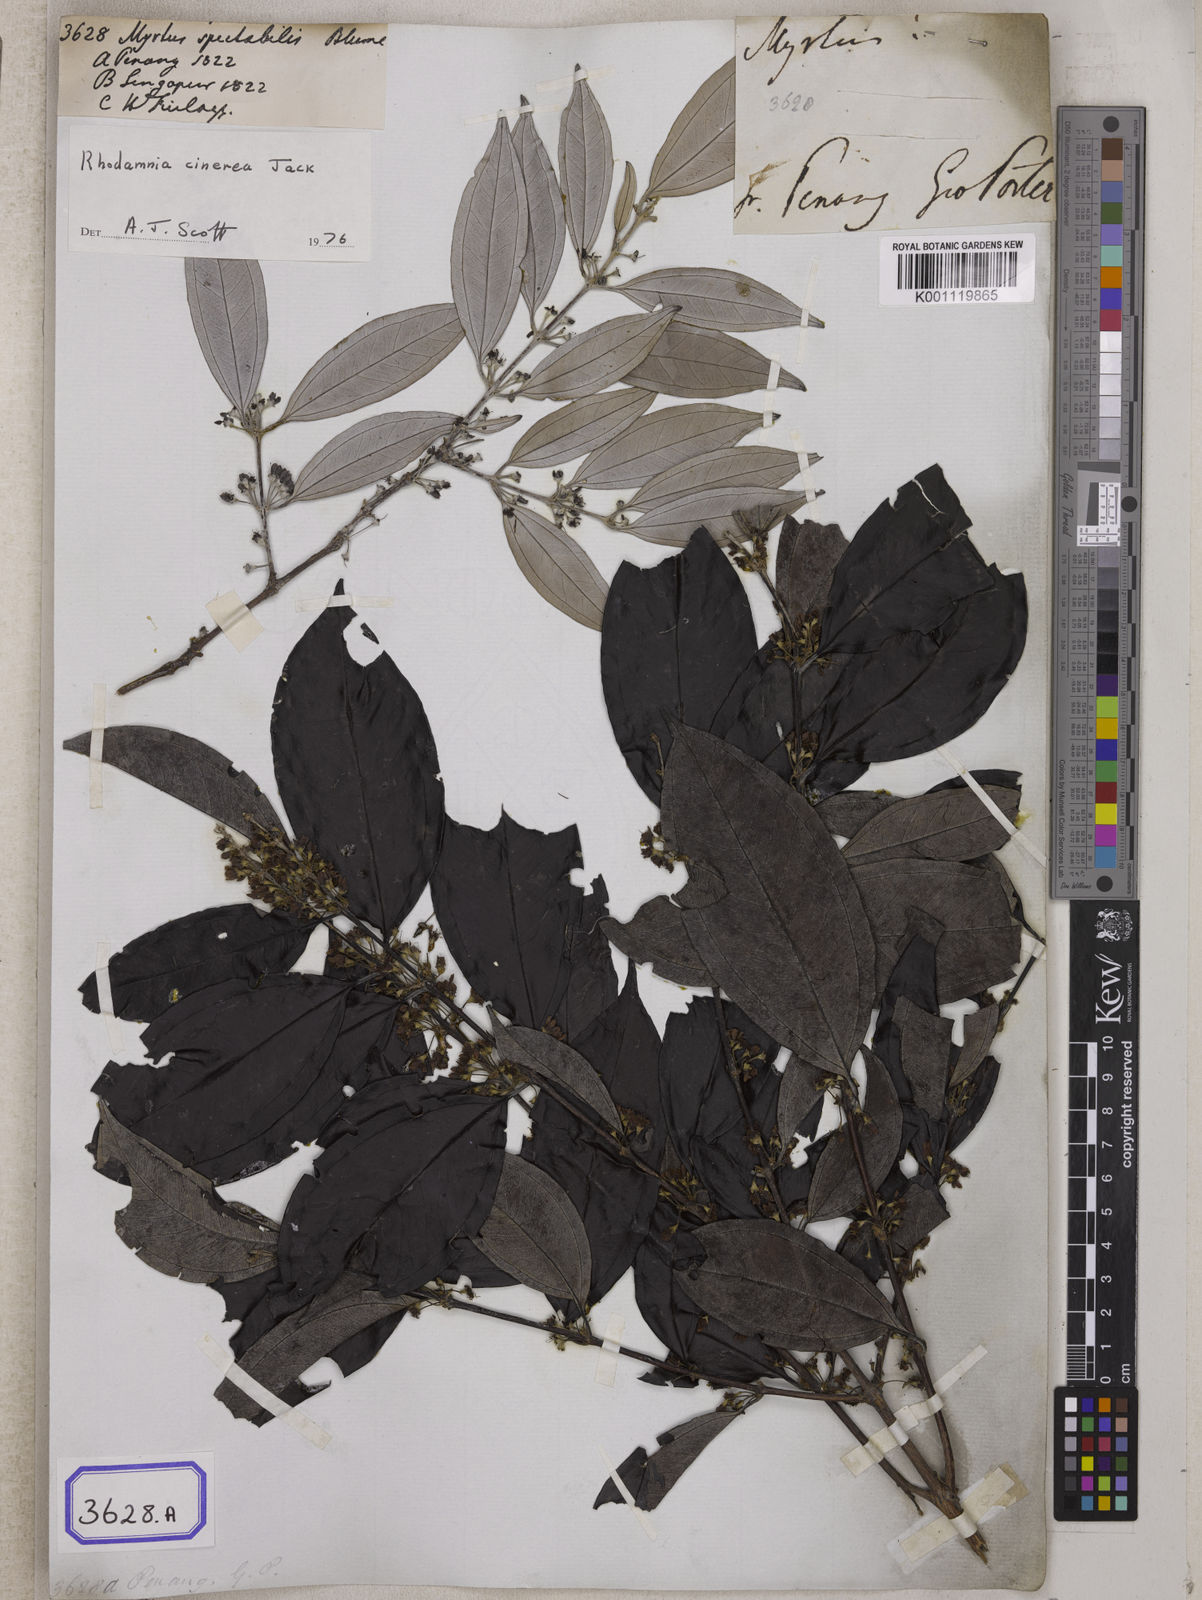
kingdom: Plantae
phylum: Tracheophyta
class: Magnoliopsida
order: Myrtales
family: Myrtaceae
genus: Rhodamnia
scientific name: Rhodamnia cinerea
